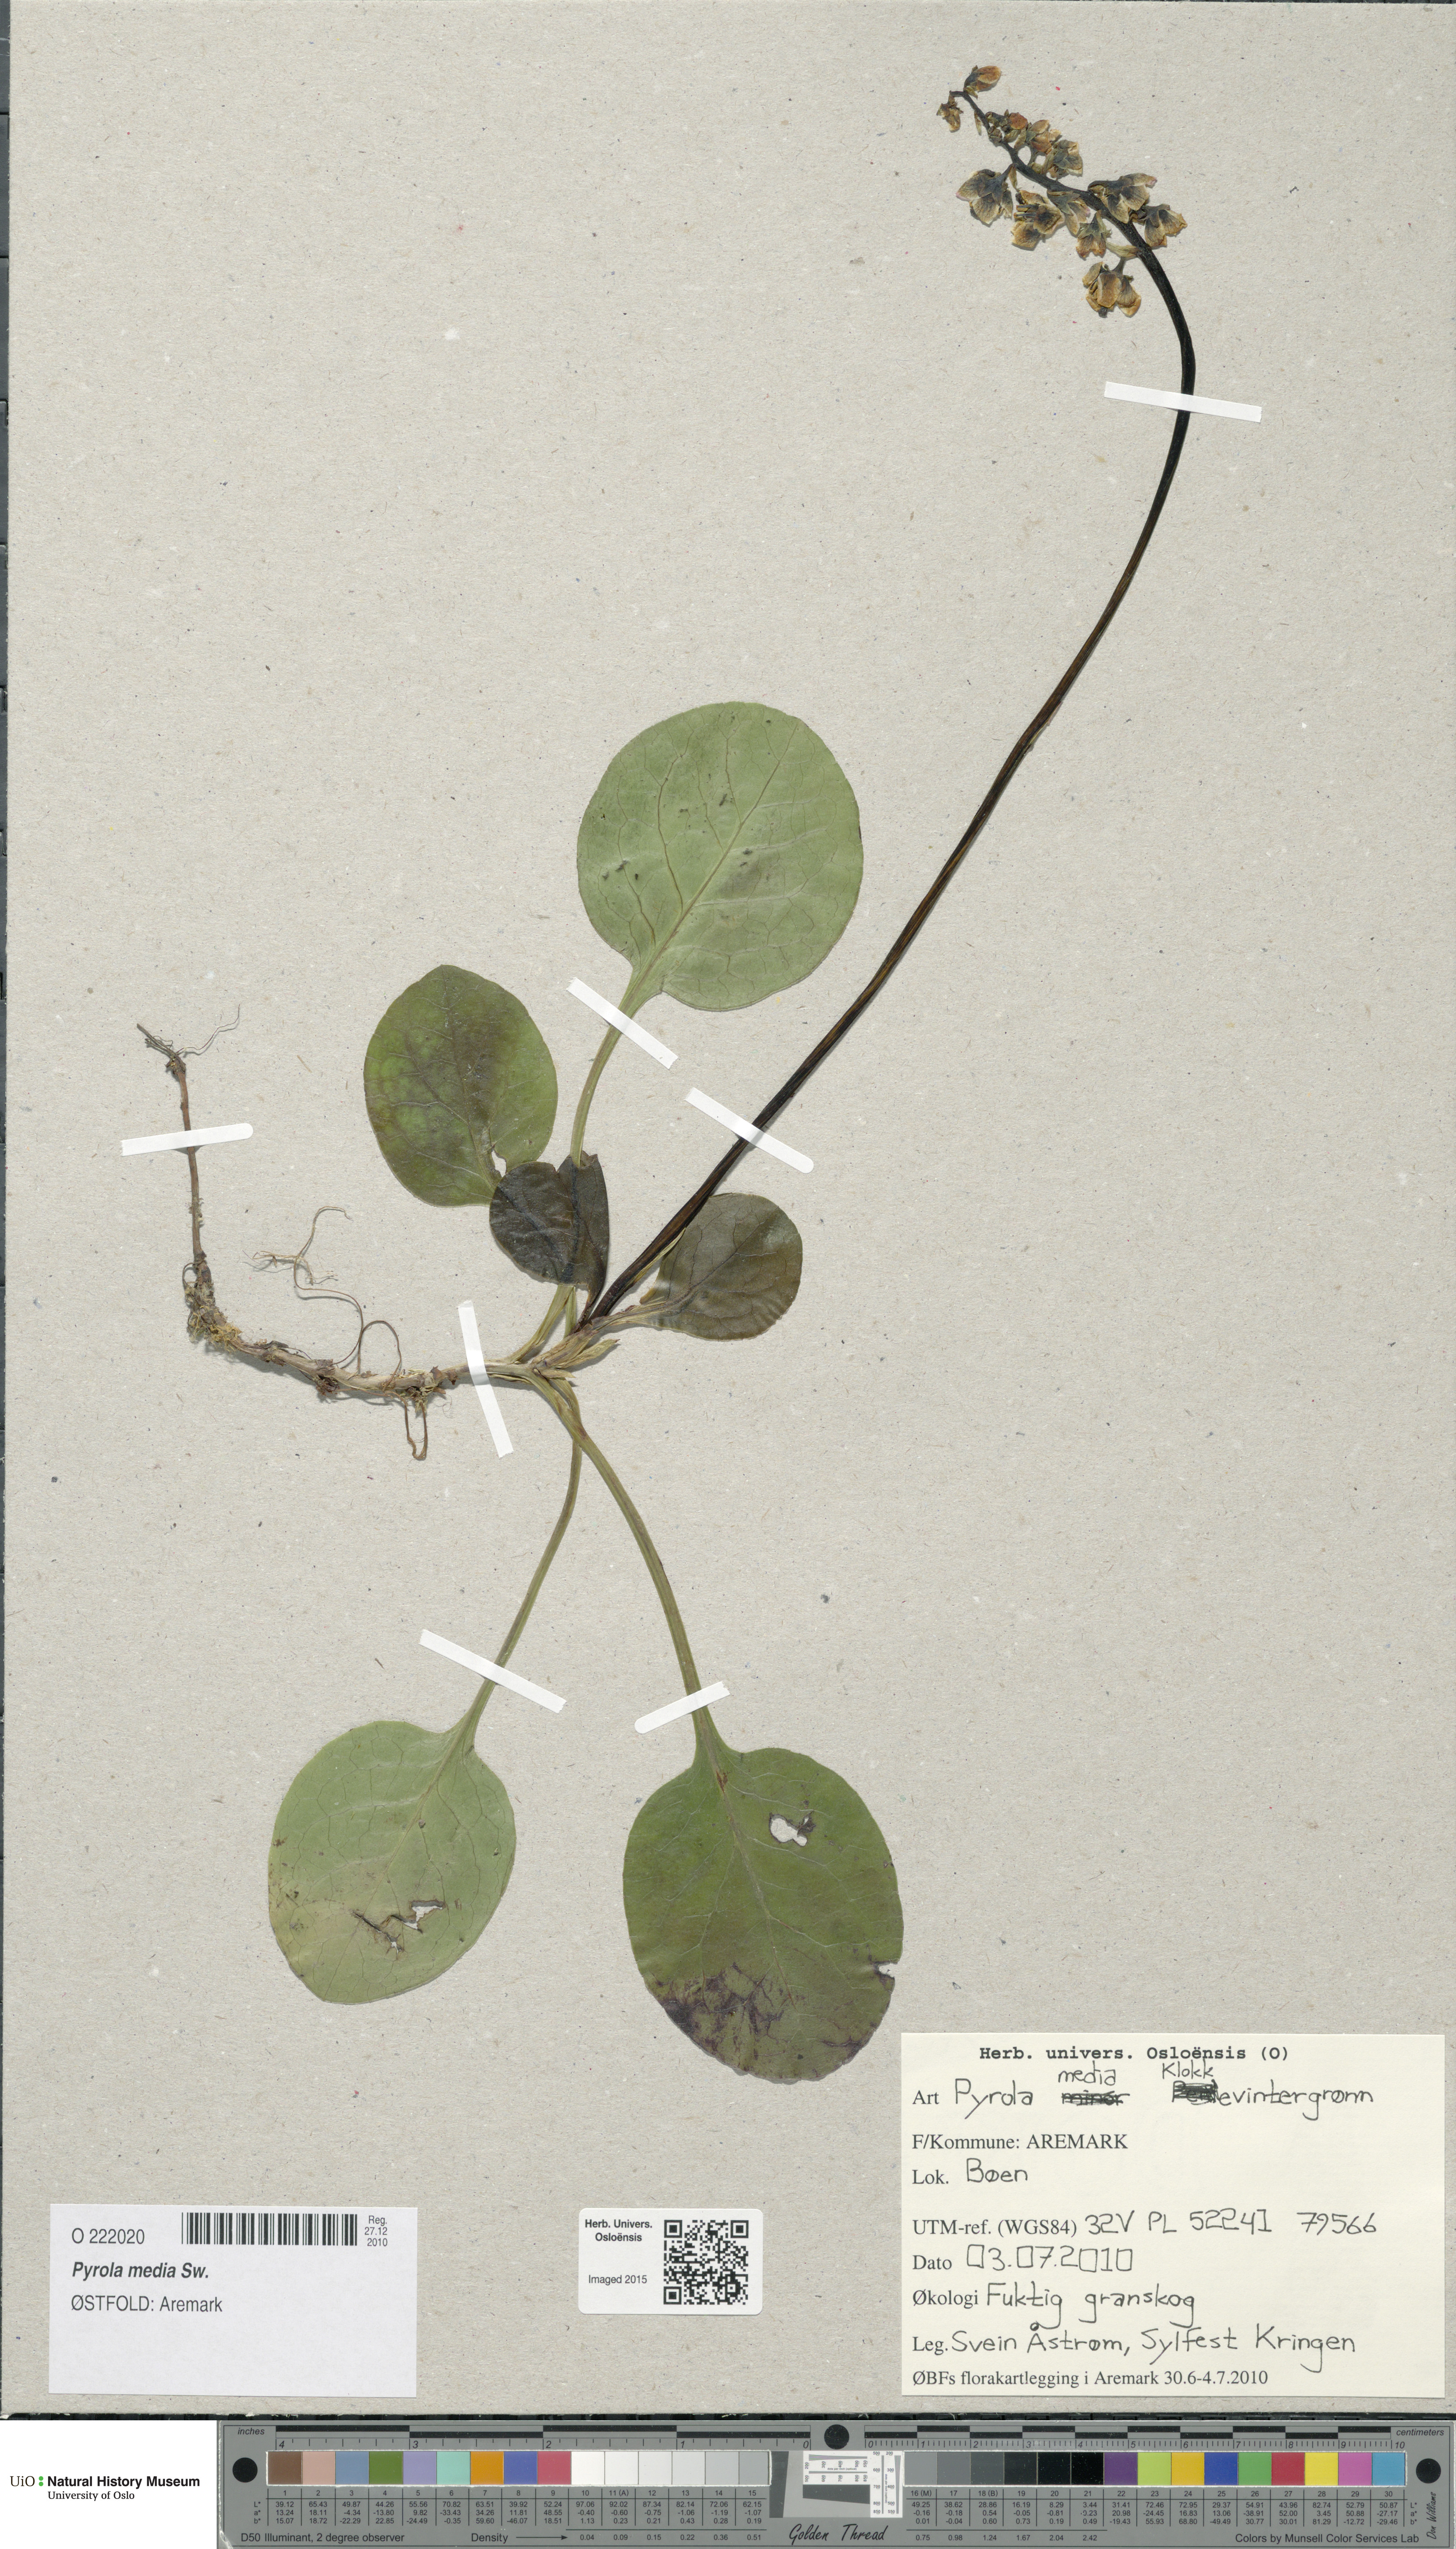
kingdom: Plantae
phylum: Tracheophyta
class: Magnoliopsida
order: Ericales
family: Ericaceae
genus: Pyrola
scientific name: Pyrola media
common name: Intermediate wintergreen
